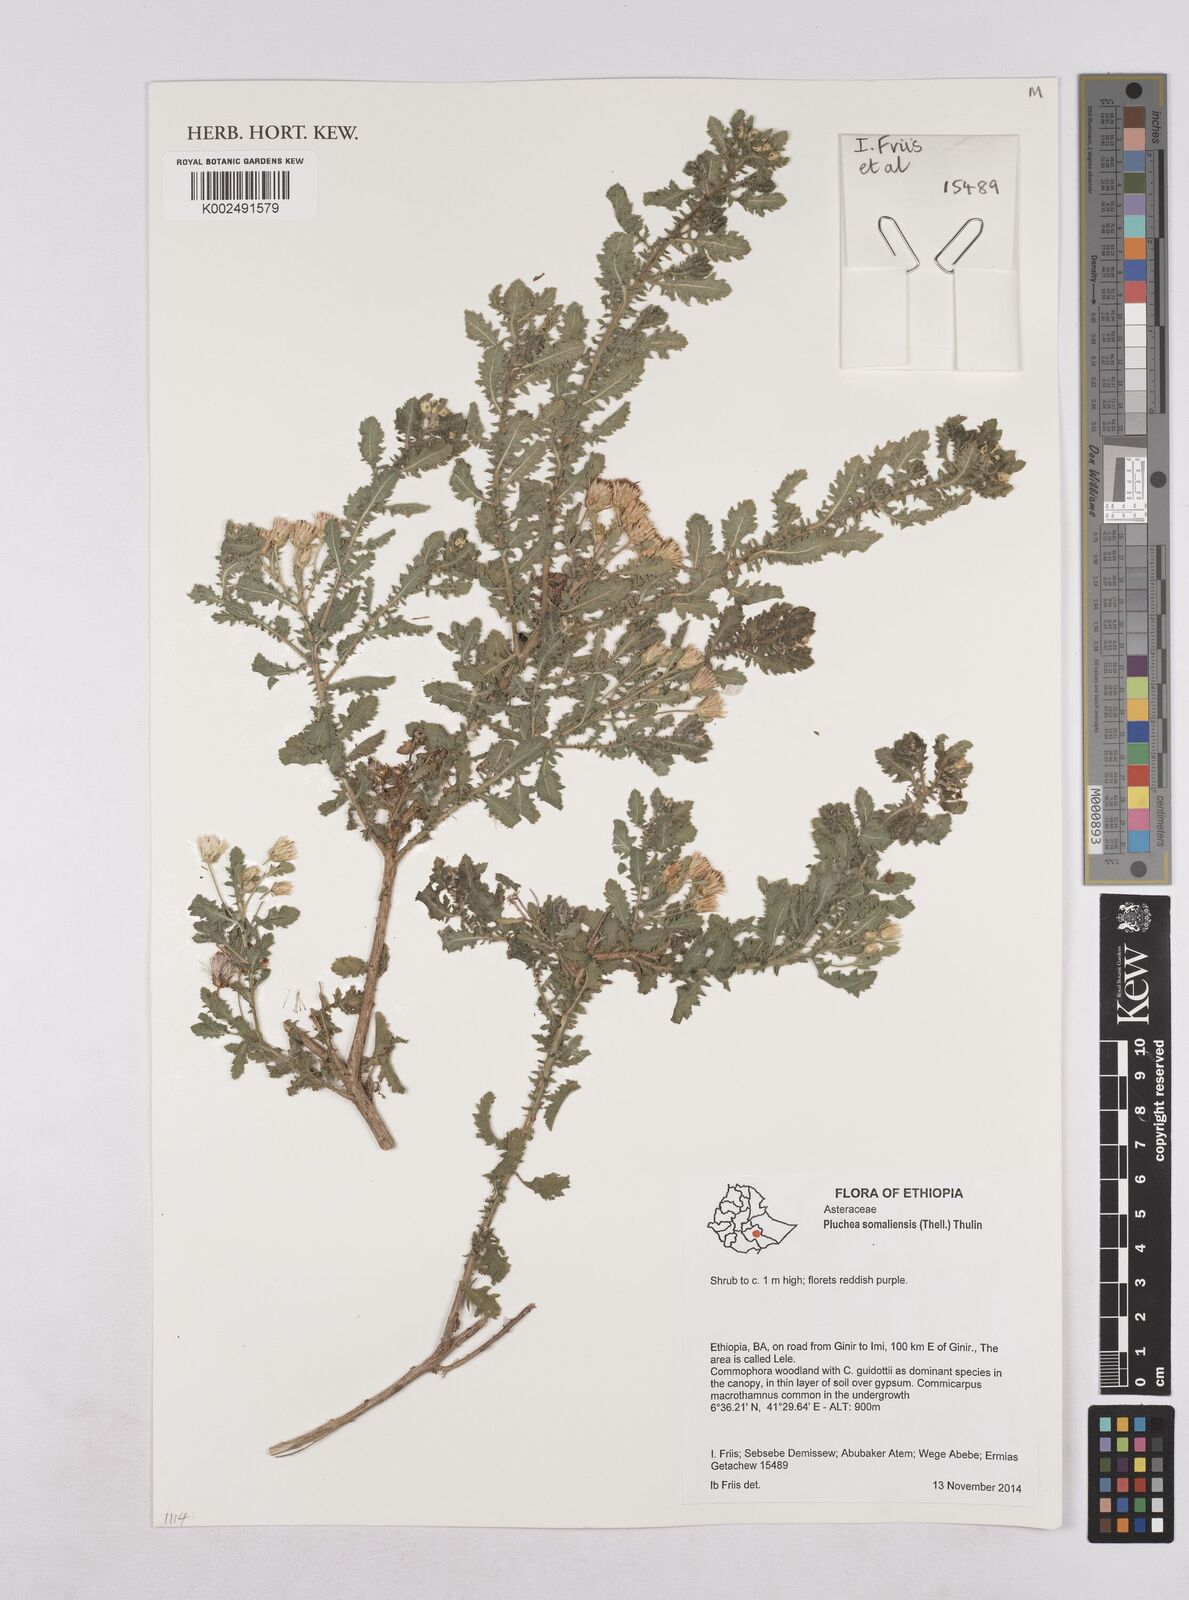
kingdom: Plantae
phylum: Tracheophyta
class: Magnoliopsida
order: Asterales
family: Asteraceae
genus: Pluchea
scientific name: Pluchea somaliensis
